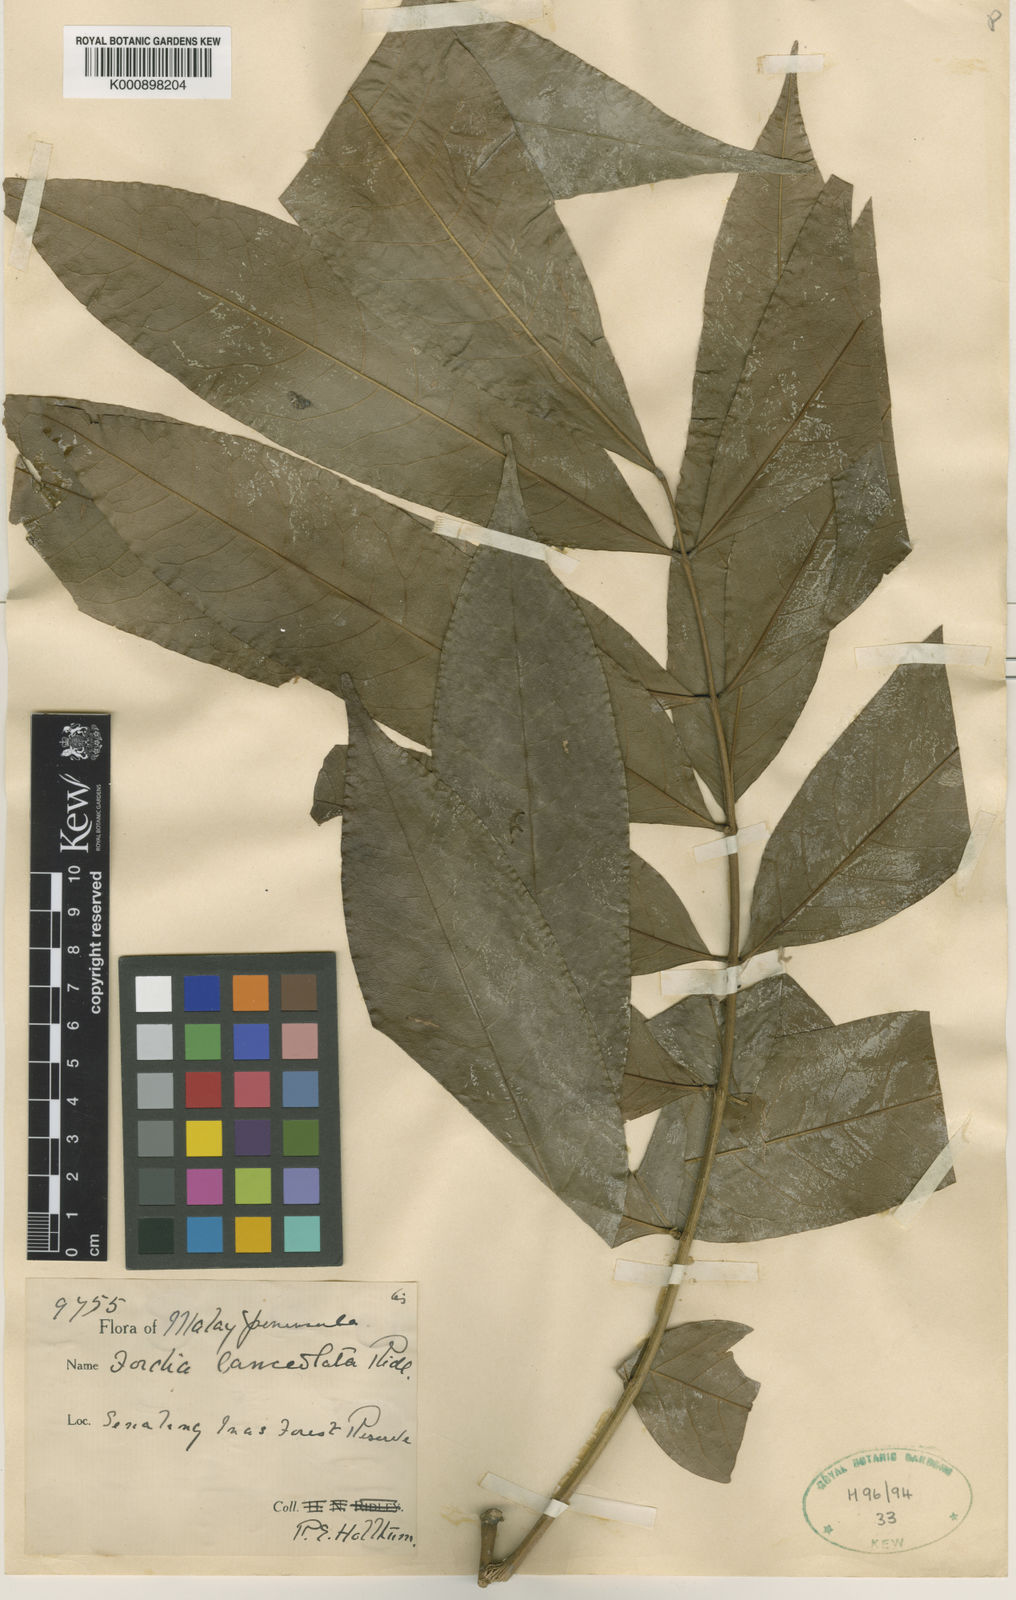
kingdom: Plantae
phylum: Tracheophyta
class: Magnoliopsida
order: Fabales
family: Fabaceae
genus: Fordia
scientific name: Fordia lanceolata
